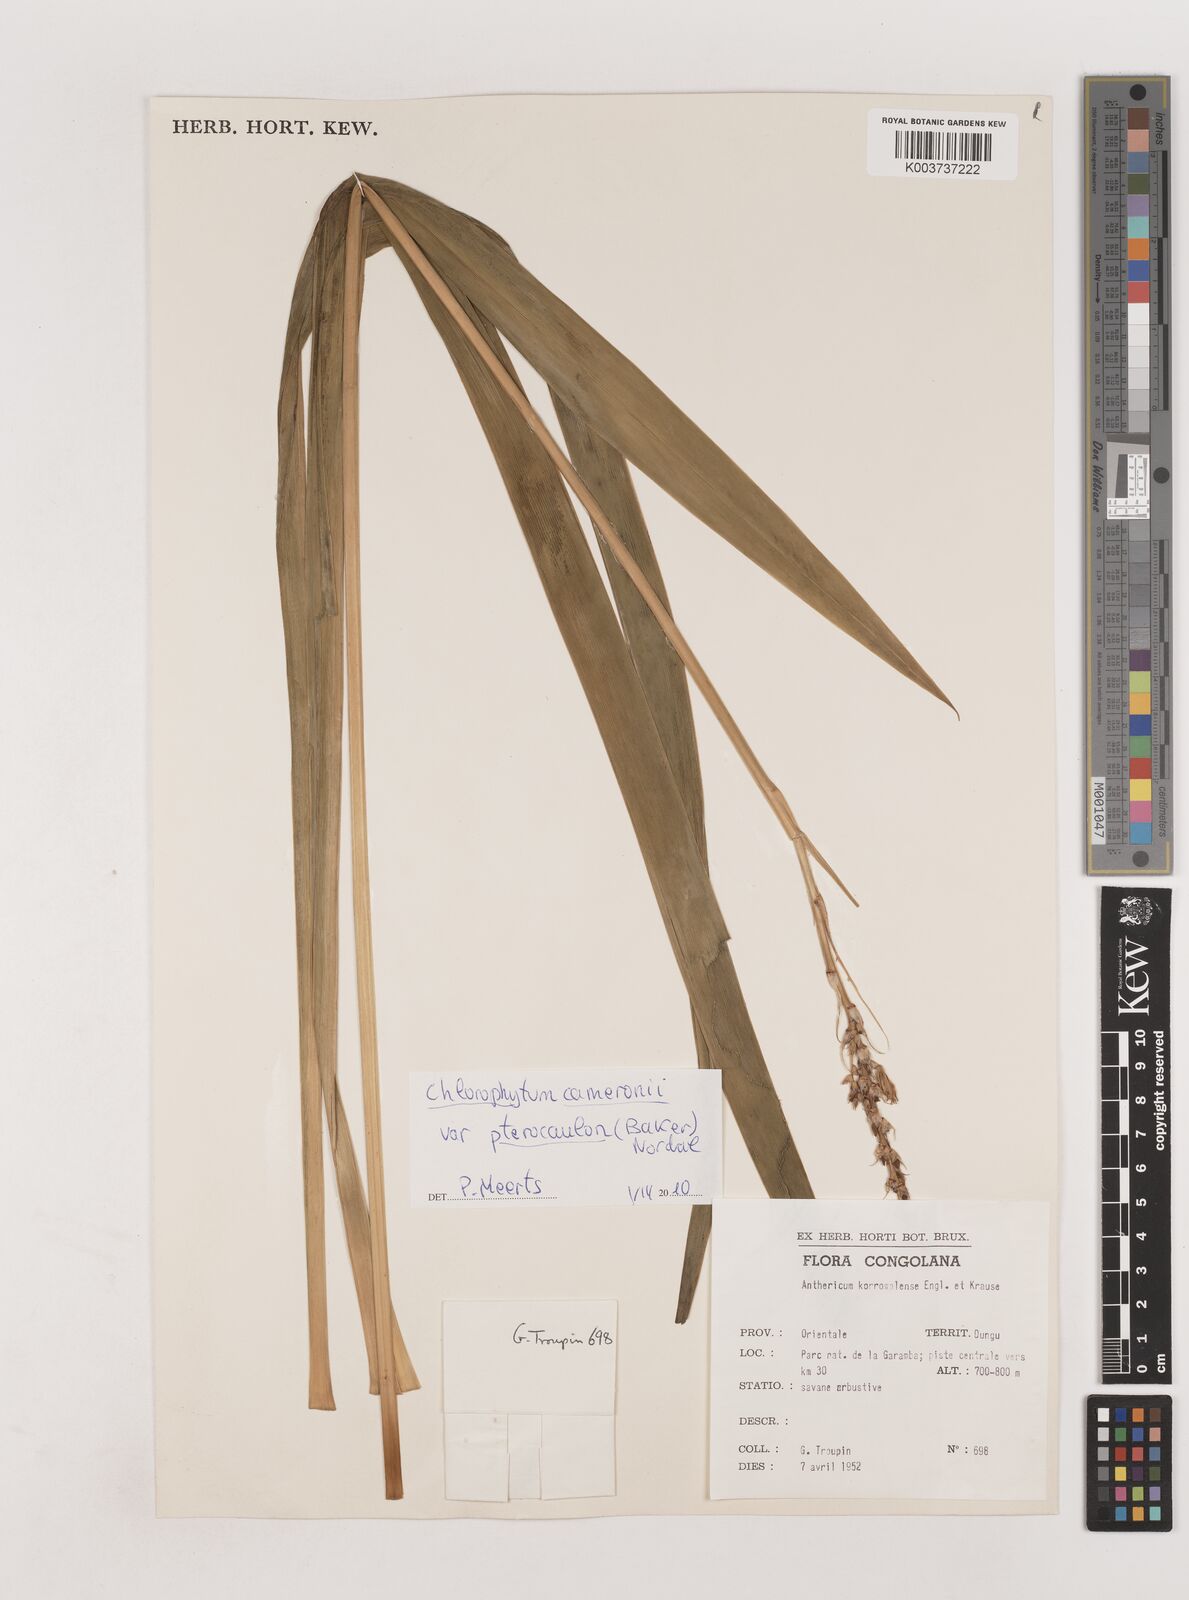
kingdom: Plantae
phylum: Tracheophyta
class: Liliopsida
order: Asparagales
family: Asparagaceae
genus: Chlorophytum
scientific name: Chlorophytum cameronii
